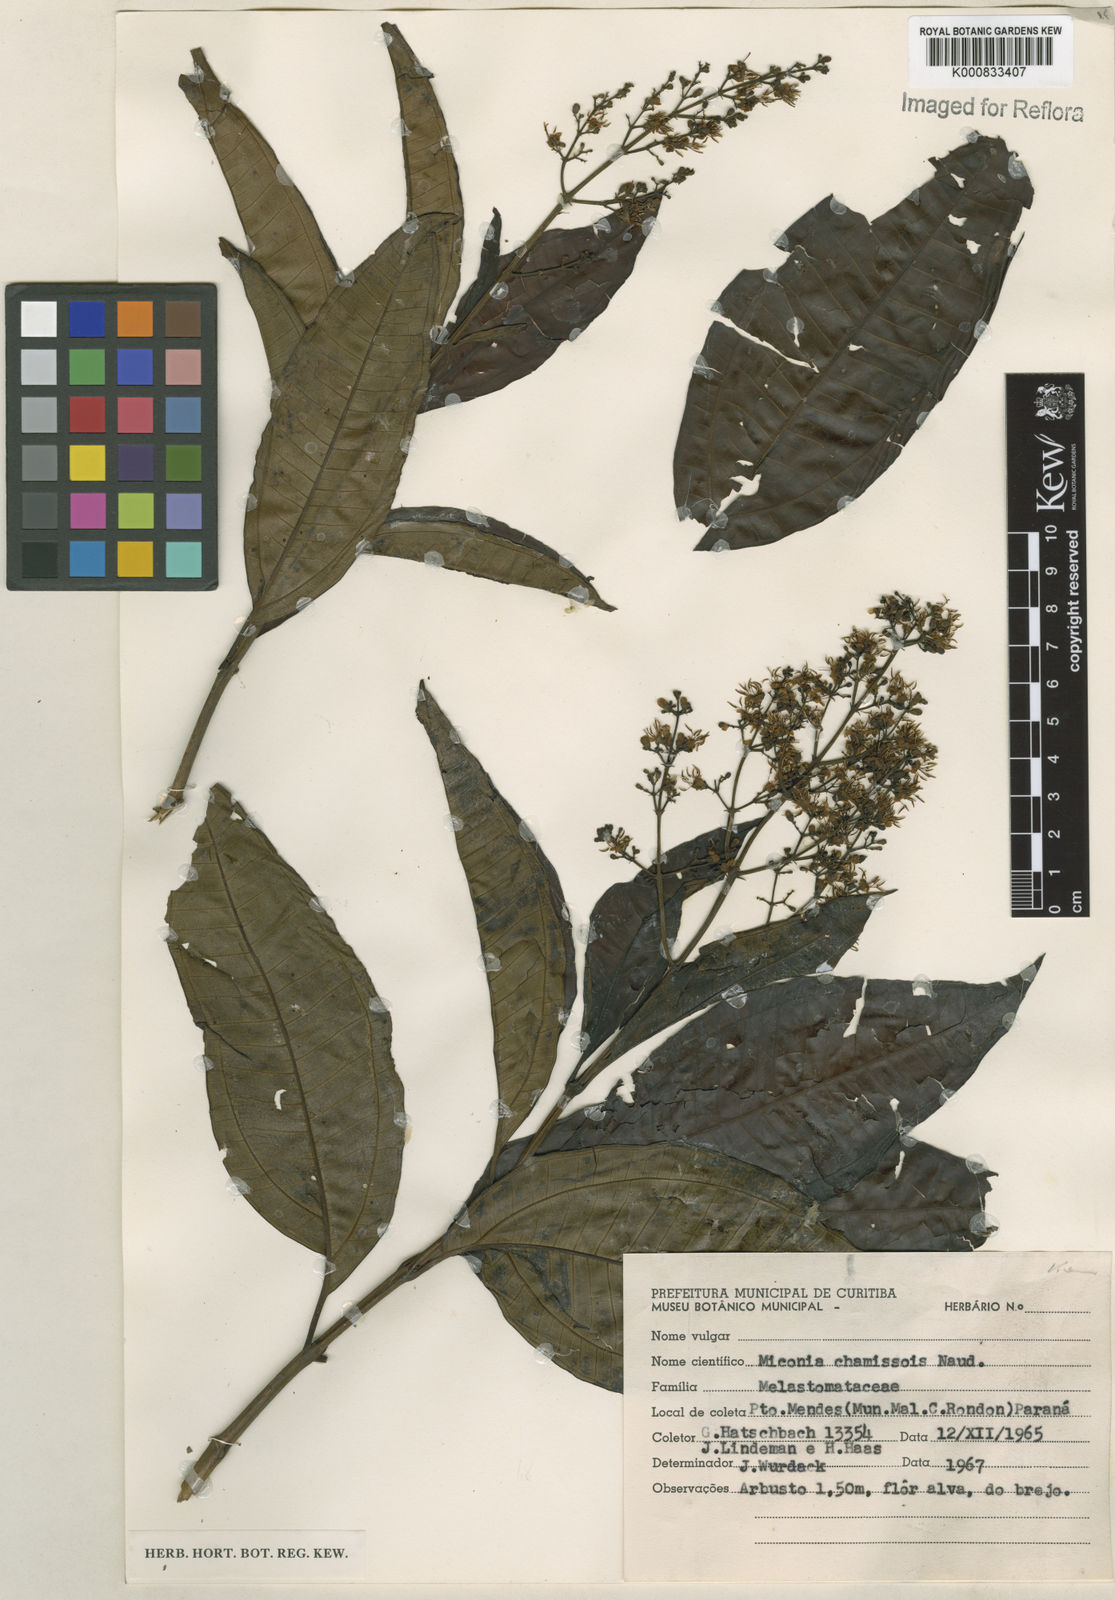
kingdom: Plantae
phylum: Tracheophyta
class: Magnoliopsida
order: Myrtales
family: Melastomataceae
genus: Miconia
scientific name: Miconia chamissois
